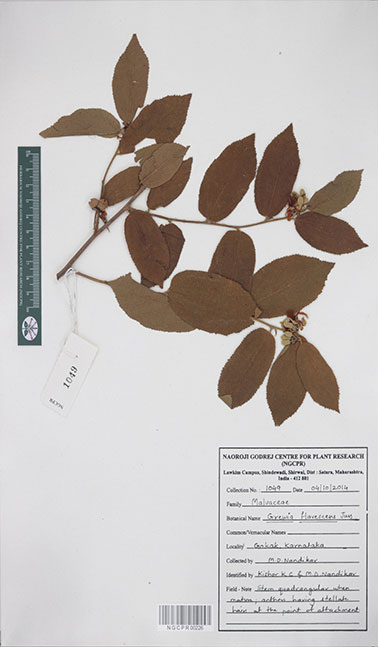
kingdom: Plantae
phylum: Tracheophyta
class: Magnoliopsida
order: Malvales
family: Malvaceae
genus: Grewia
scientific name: Grewia flavescens
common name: Sandpaper raisin
